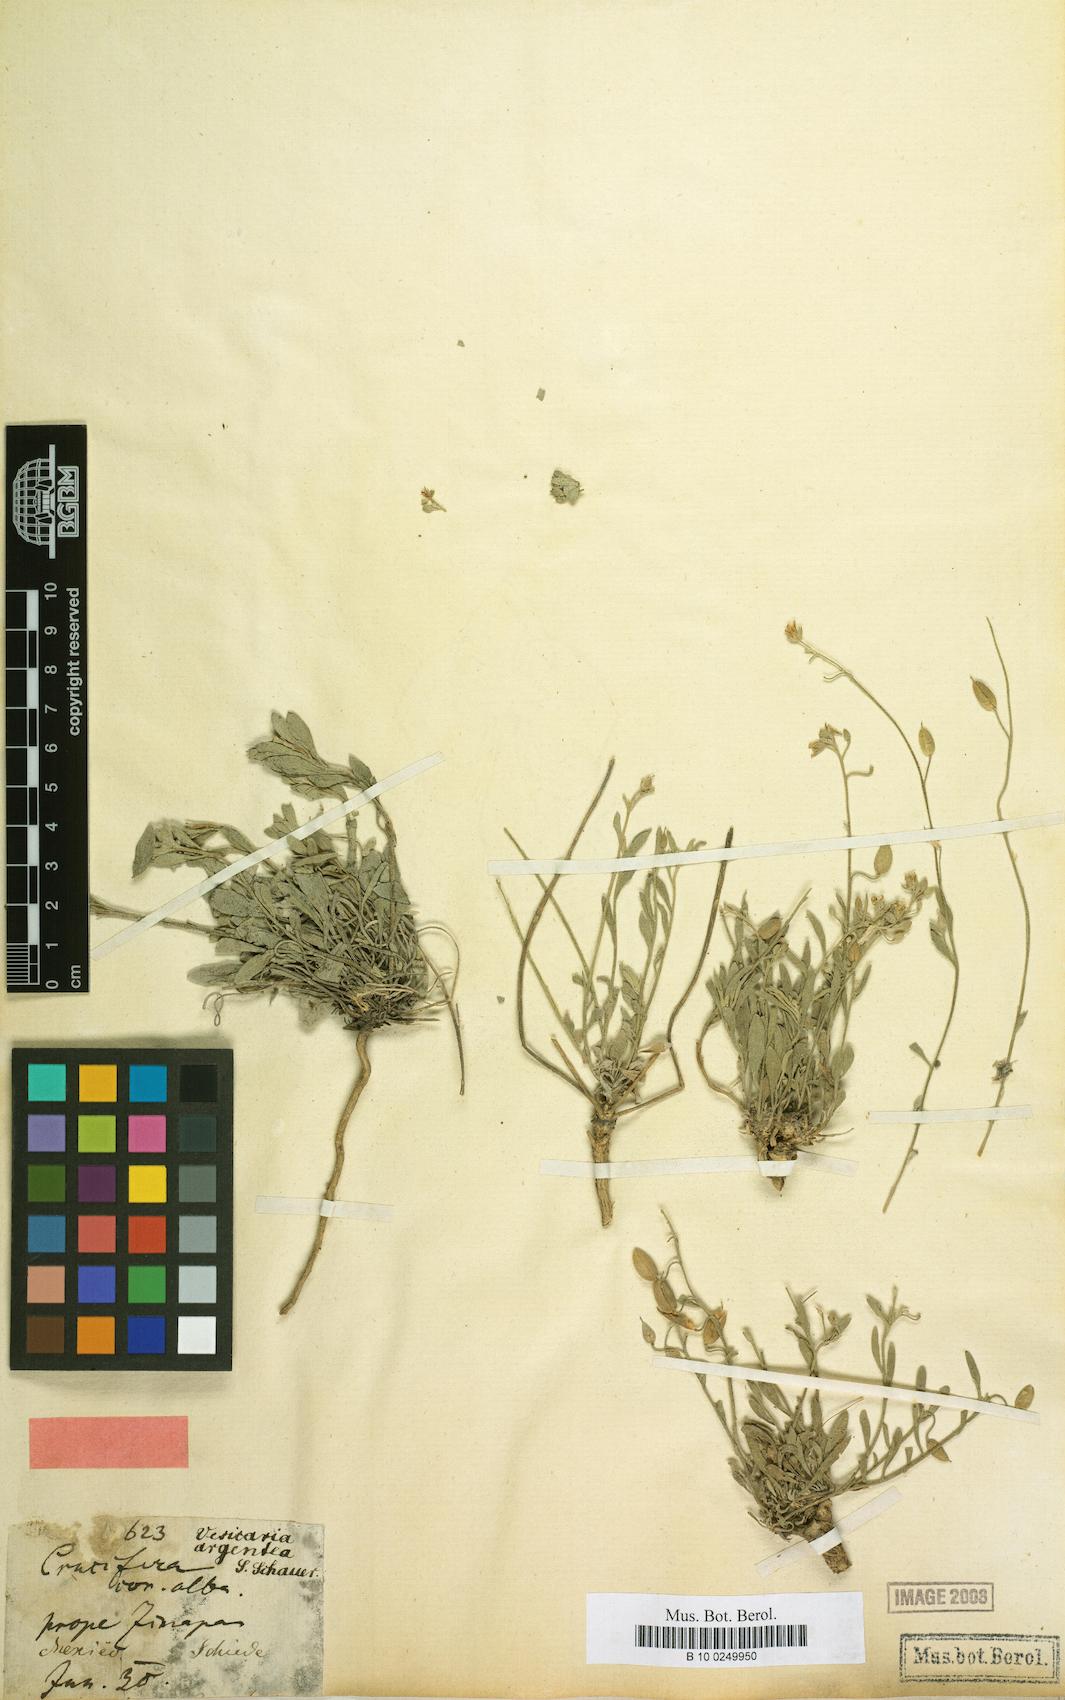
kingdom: Plantae
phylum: Tracheophyta
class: Magnoliopsida
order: Brassicales
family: Brassicaceae
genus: Physaria
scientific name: Physaria argentea
